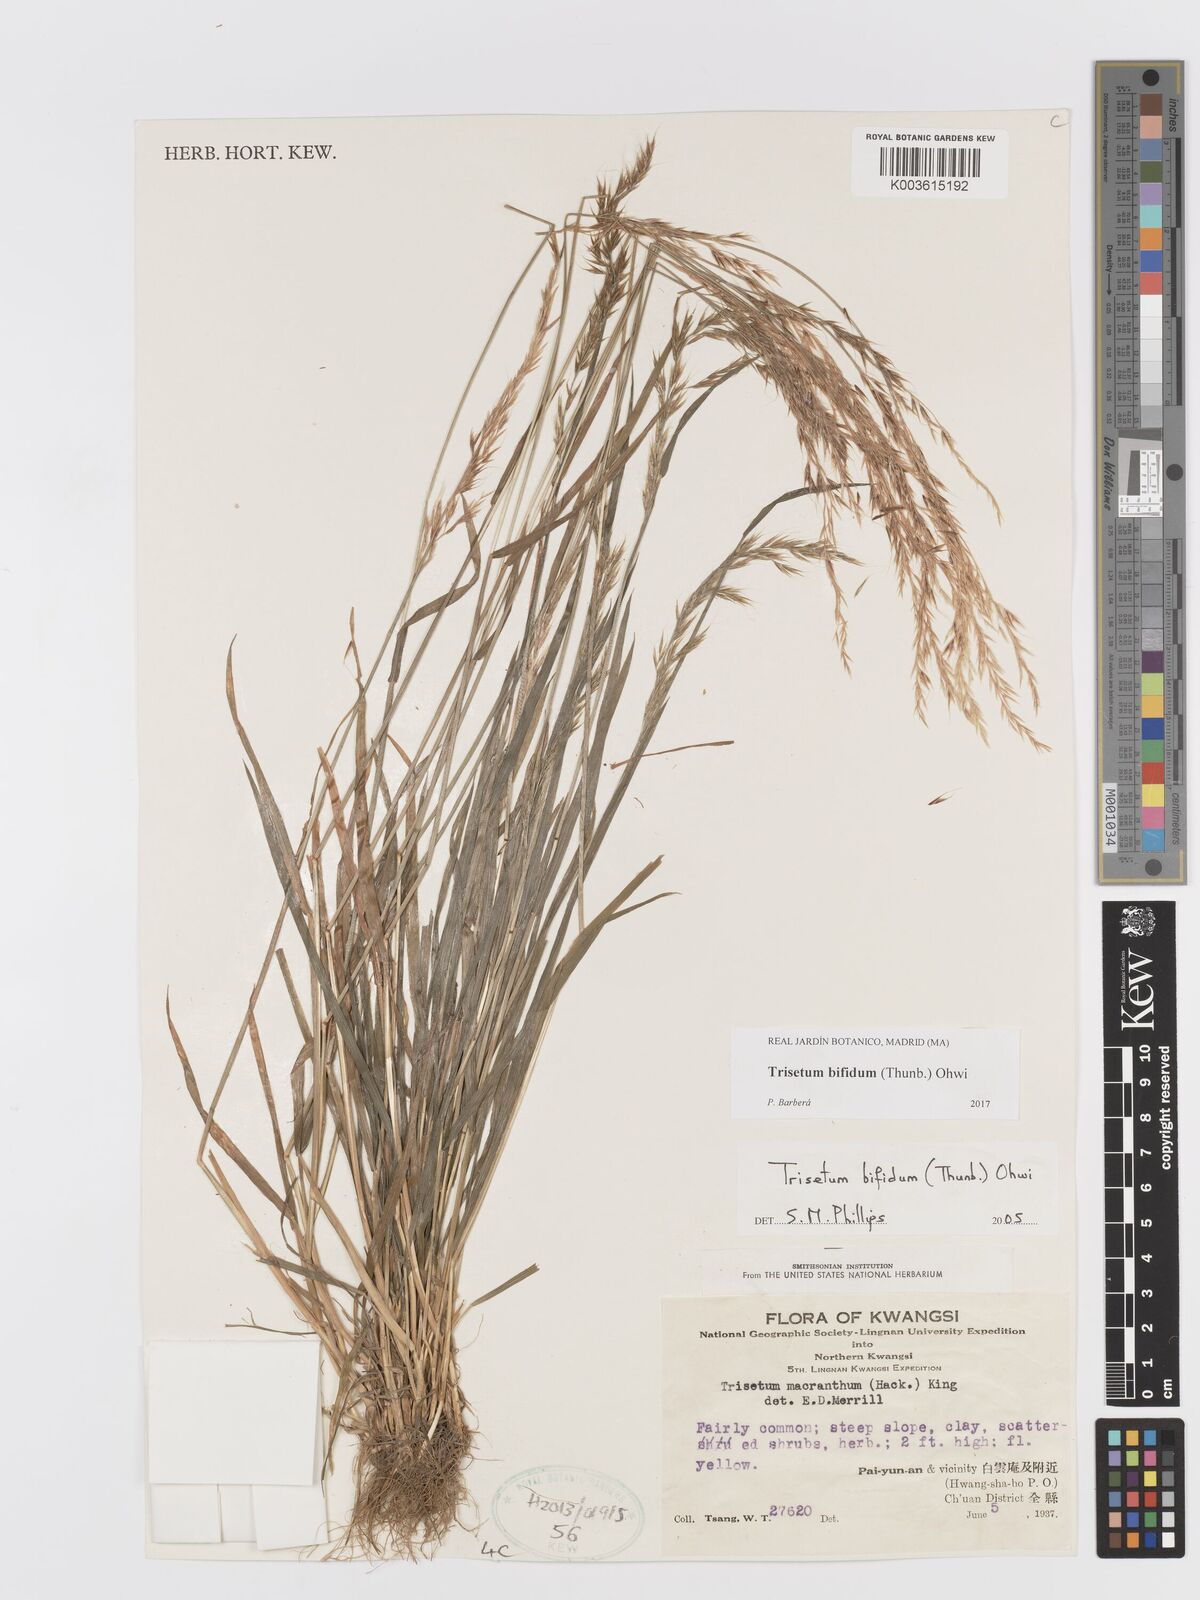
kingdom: Plantae
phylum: Tracheophyta
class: Liliopsida
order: Poales
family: Poaceae
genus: Sibirotrisetum
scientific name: Sibirotrisetum bifidum
